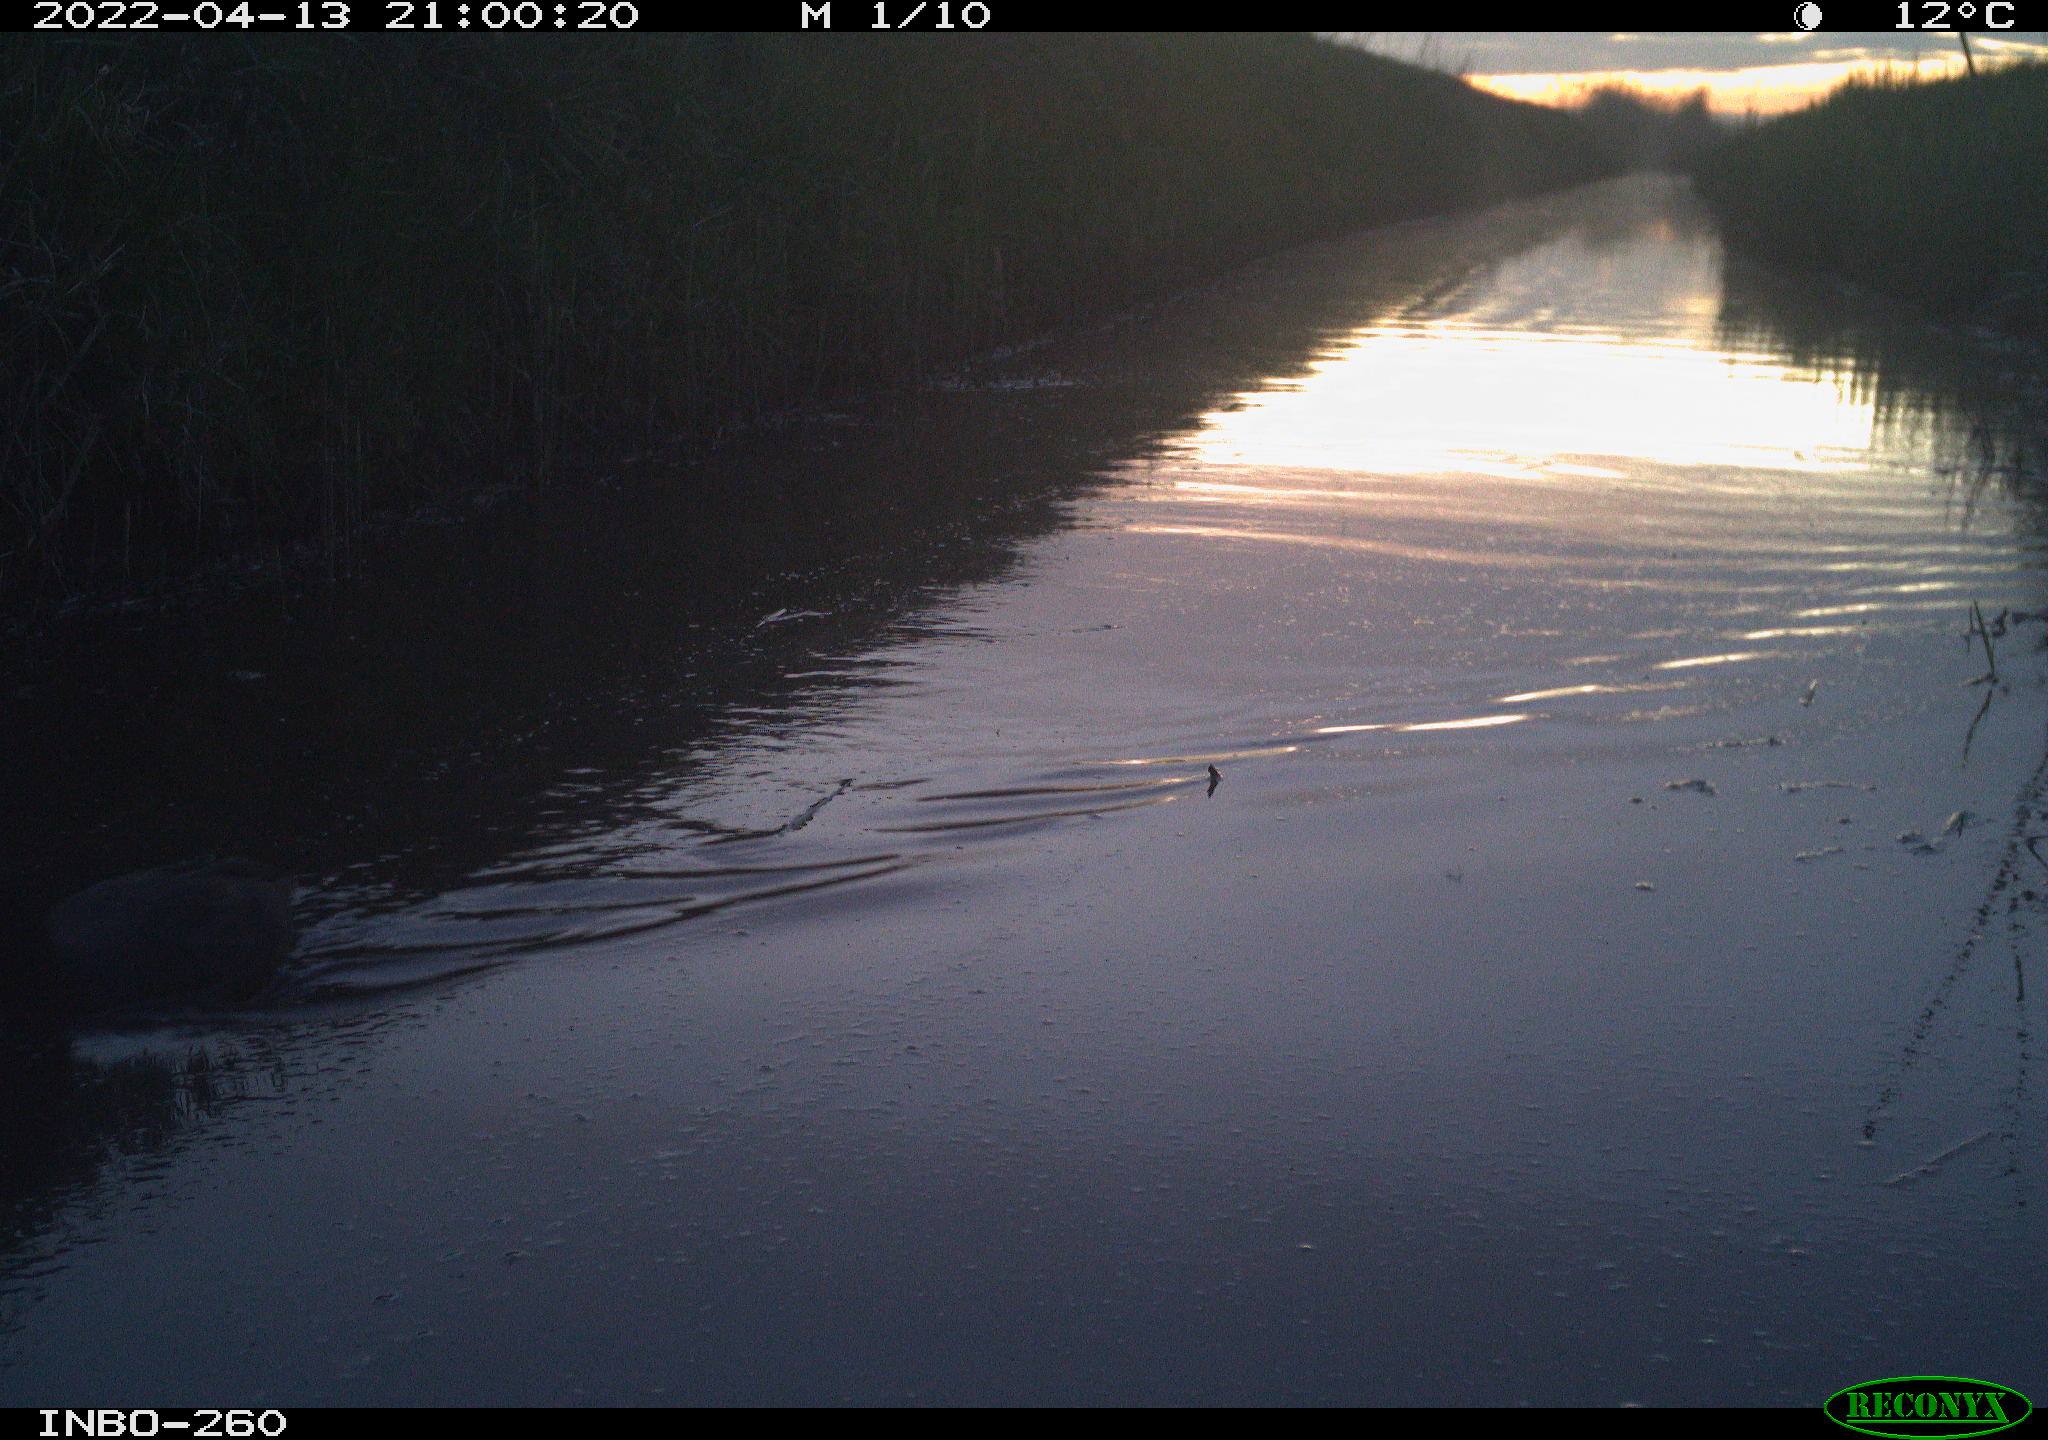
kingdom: Animalia
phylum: Chordata
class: Aves
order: Gruiformes
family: Rallidae
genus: Fulica
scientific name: Fulica atra
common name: Eurasian coot
